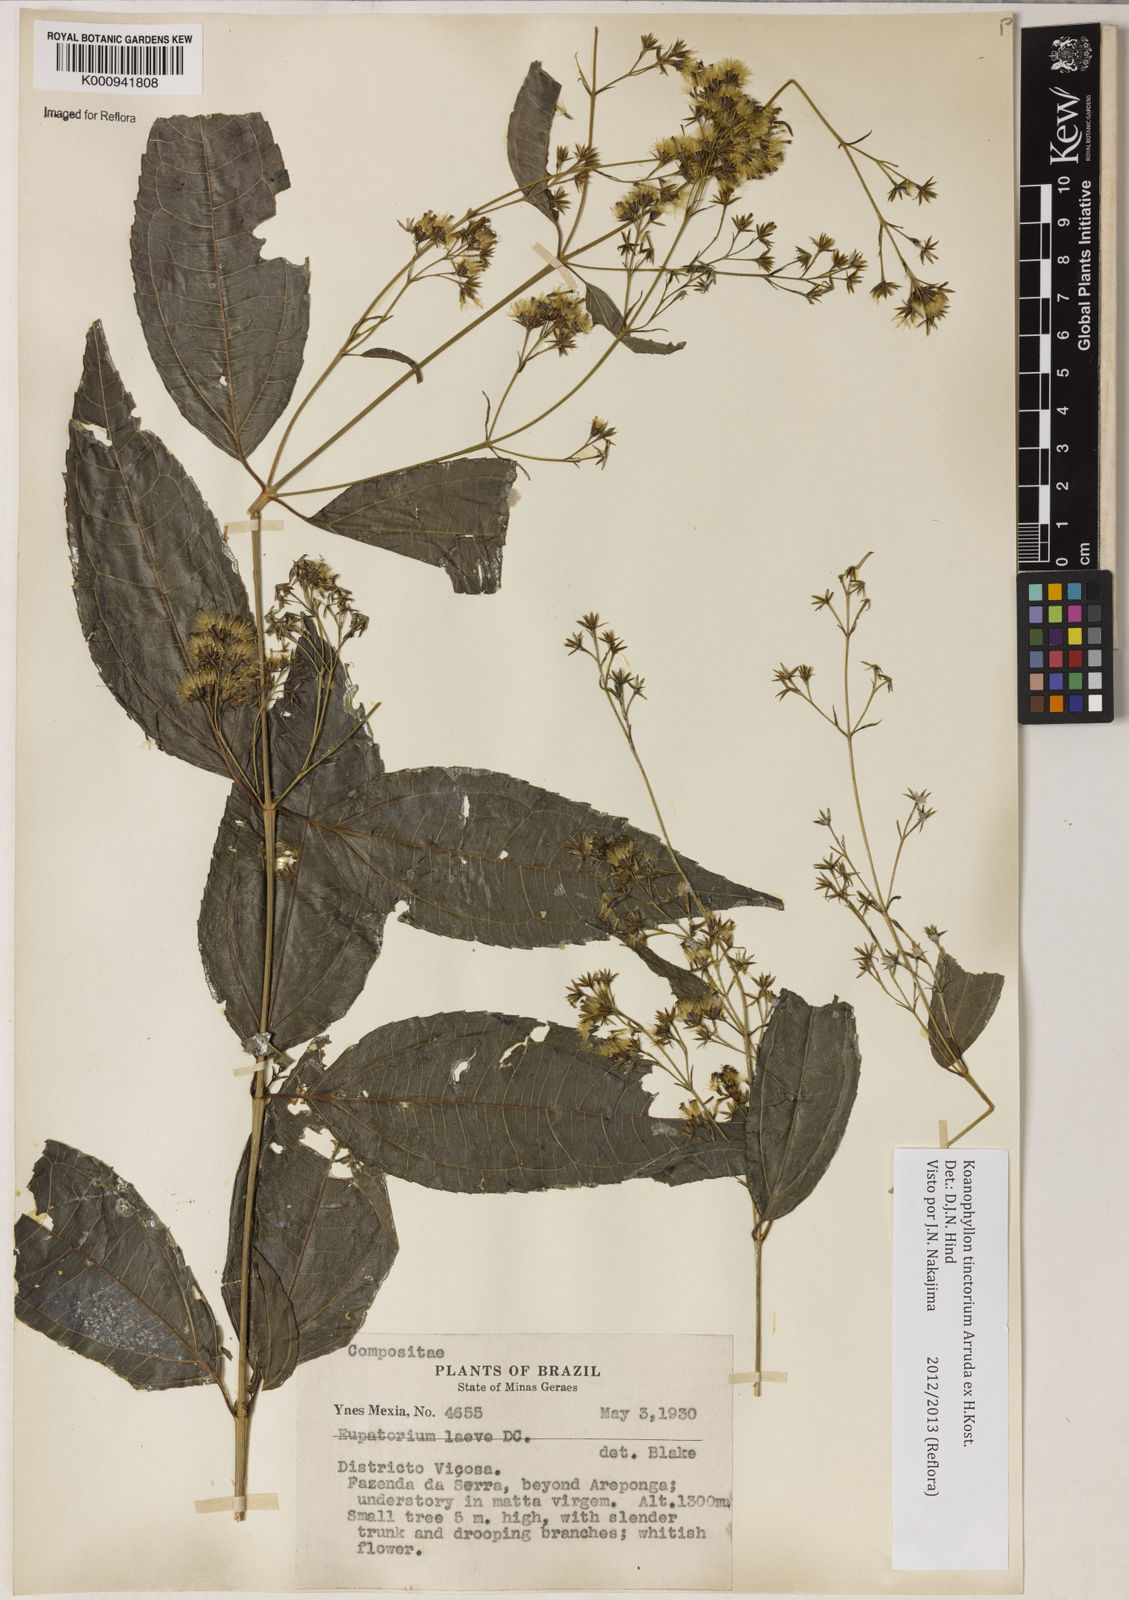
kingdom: Plantae
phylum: Tracheophyta
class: Magnoliopsida
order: Asterales
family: Asteraceae
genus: Koanophyllon
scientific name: Koanophyllon
